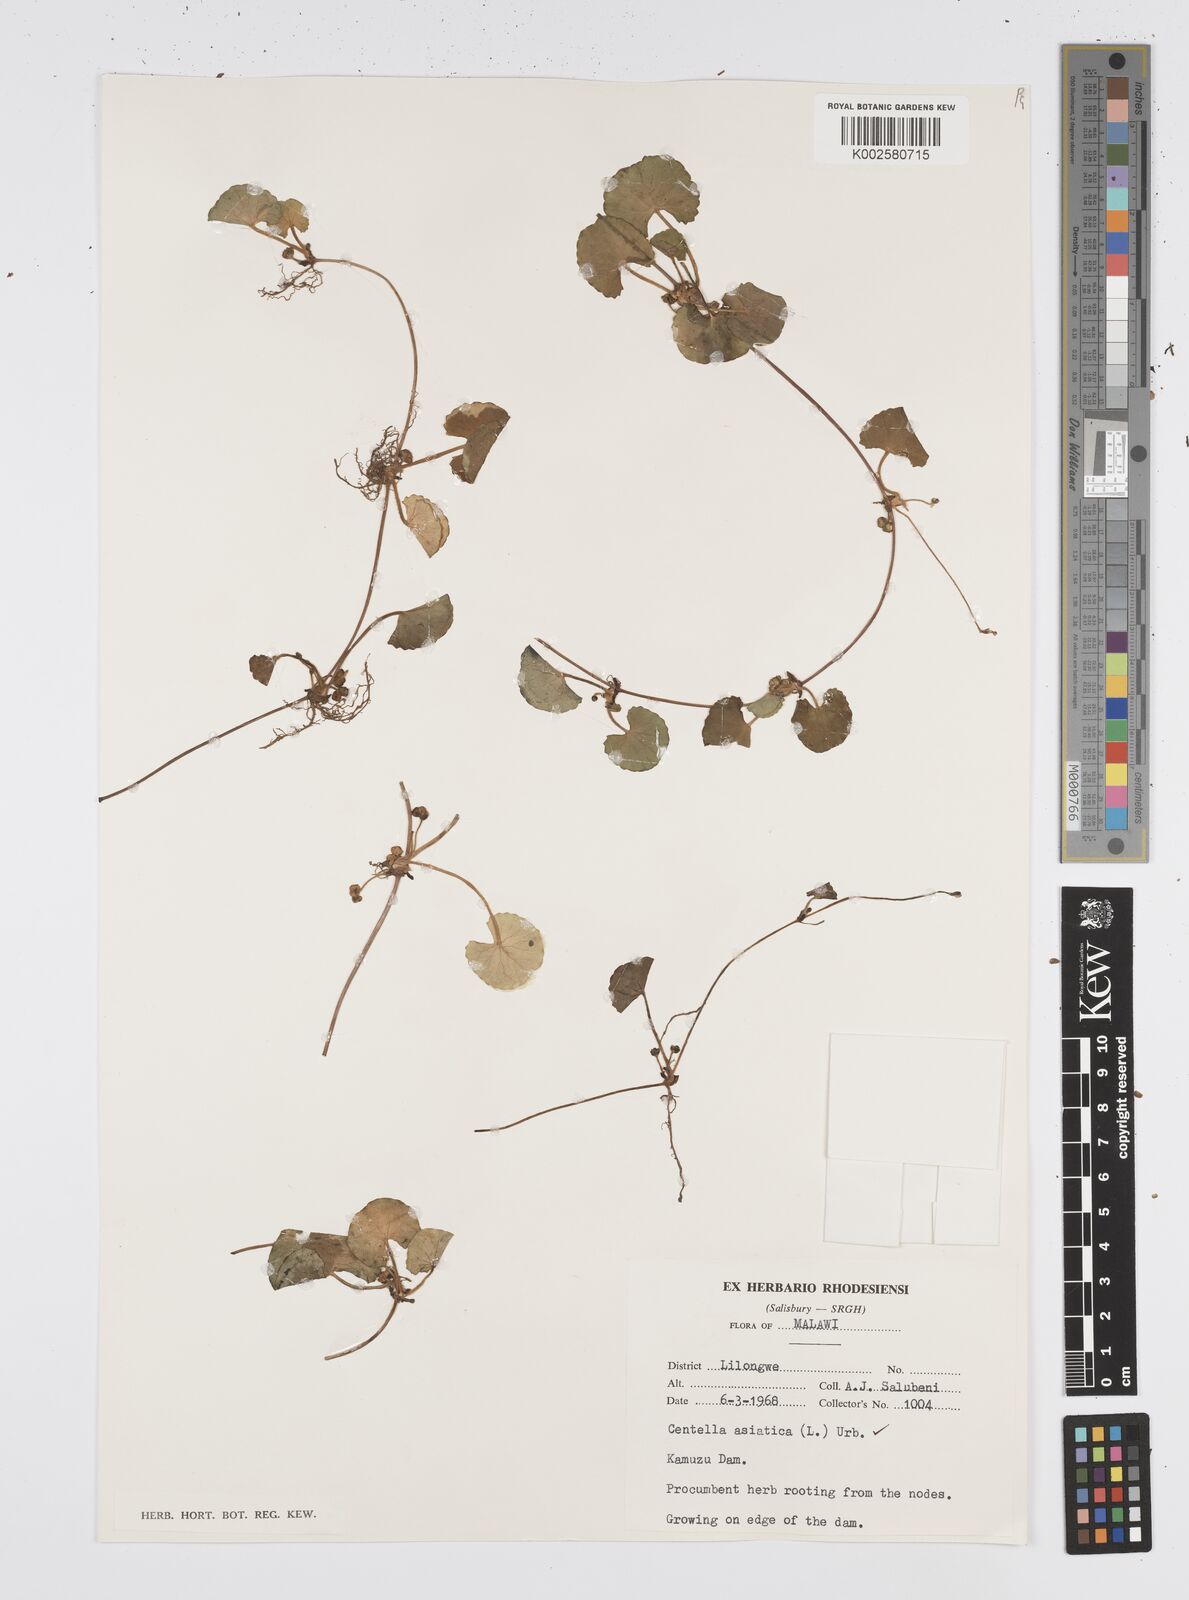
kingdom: Plantae
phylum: Tracheophyta
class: Magnoliopsida
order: Apiales
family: Apiaceae
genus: Centella
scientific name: Centella asiatica
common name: Spadeleaf
